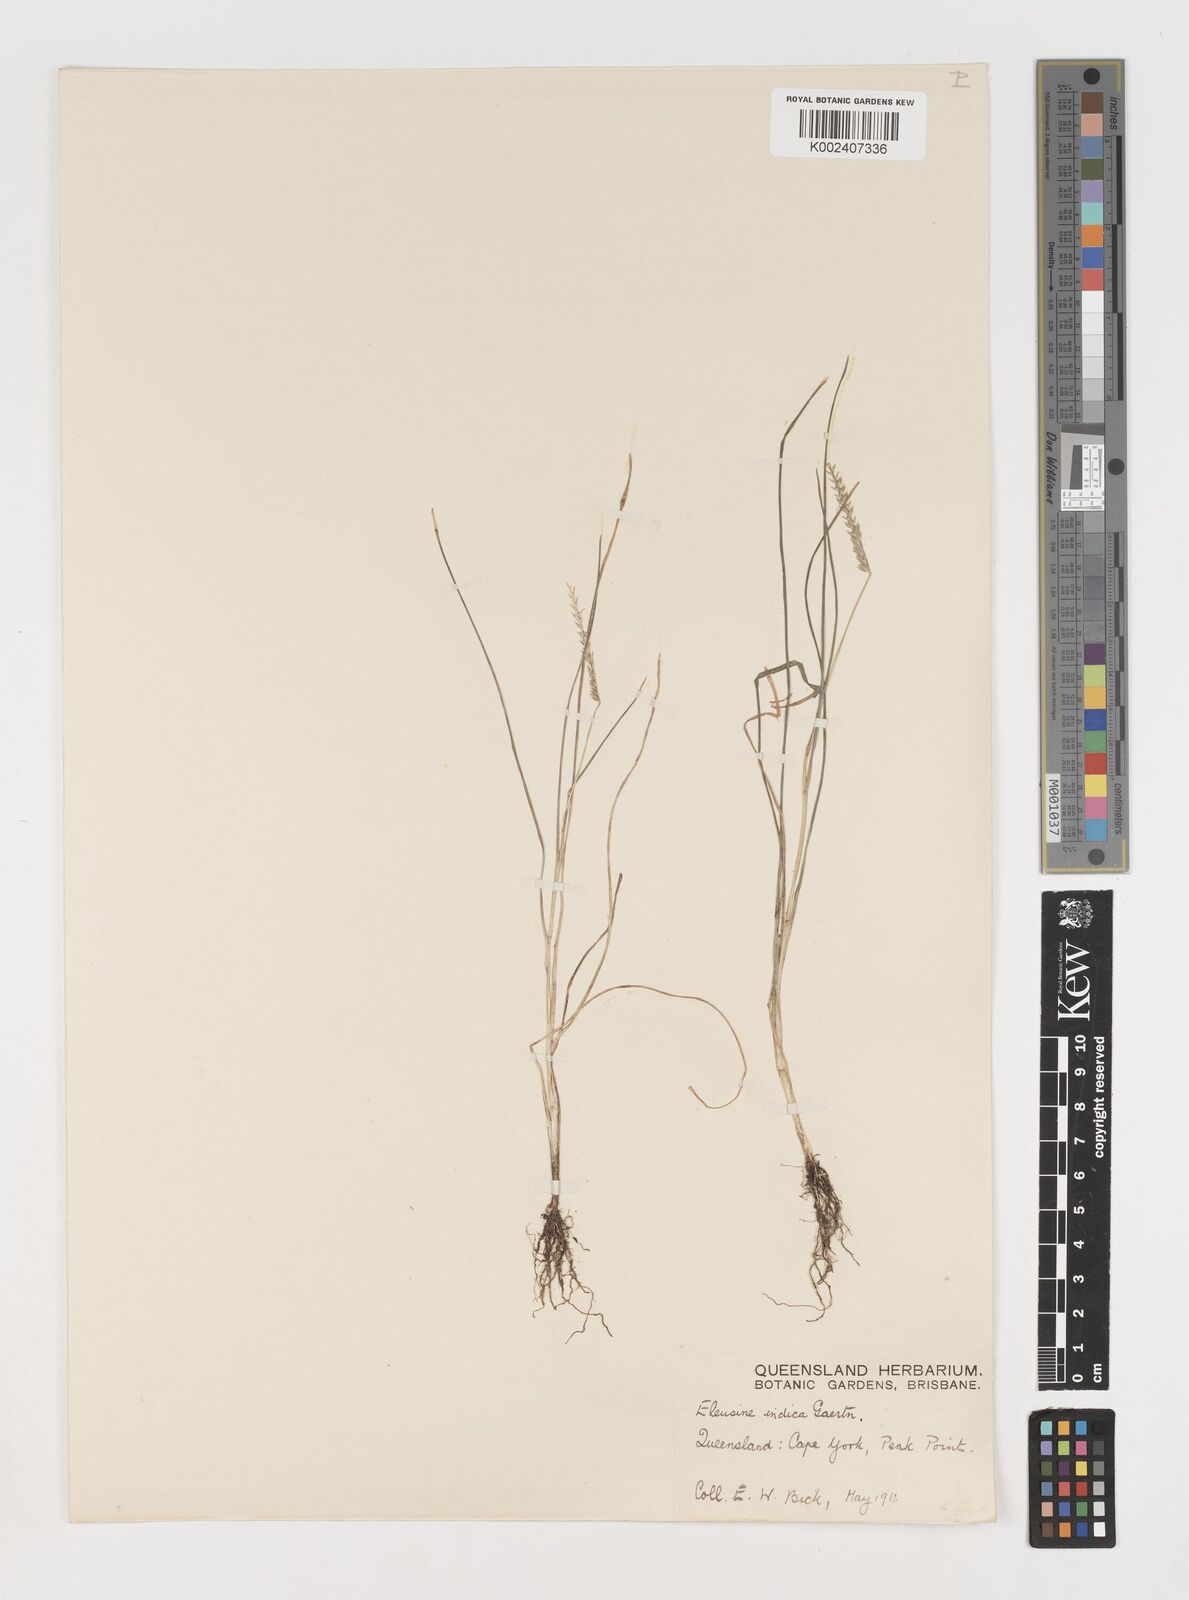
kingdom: Plantae
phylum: Tracheophyta
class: Liliopsida
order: Poales
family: Poaceae
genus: Eleusine
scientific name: Eleusine indica
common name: Yard-grass
